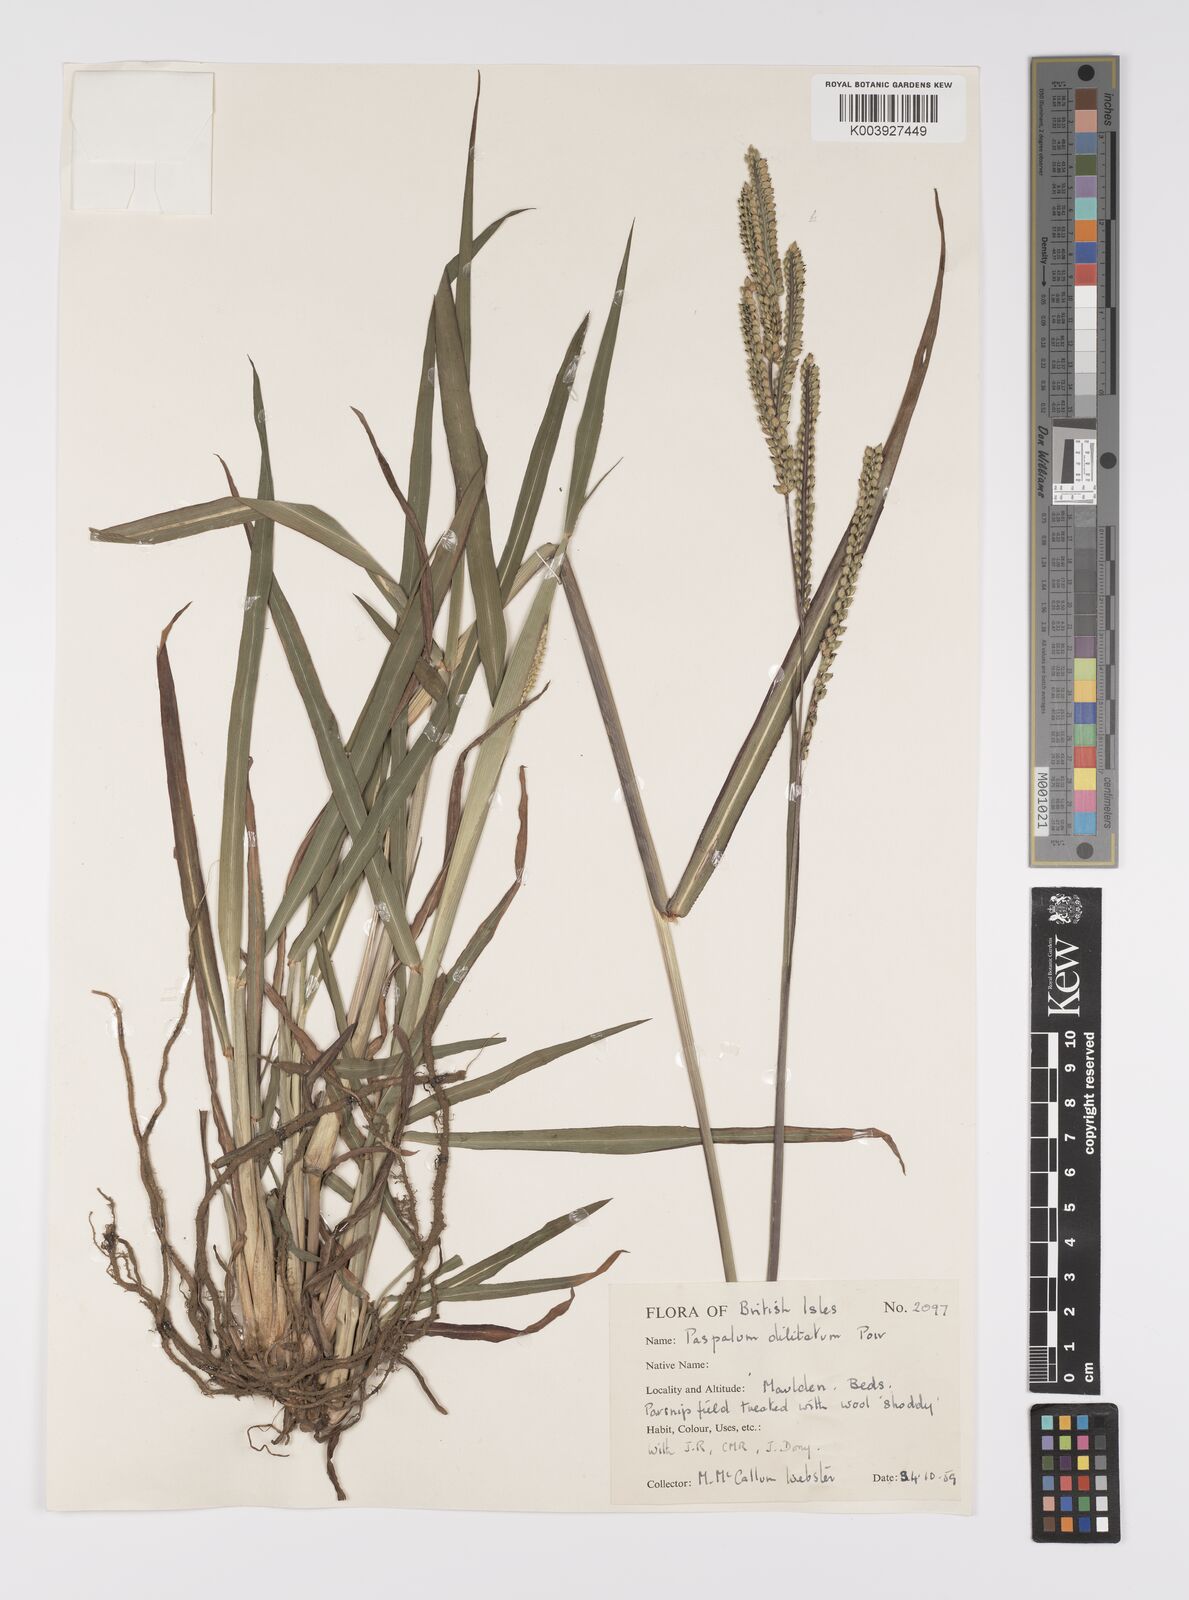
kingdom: Plantae
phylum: Tracheophyta
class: Liliopsida
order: Poales
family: Poaceae
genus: Paspalum
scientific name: Paspalum dilatatum
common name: Dallisgrass
